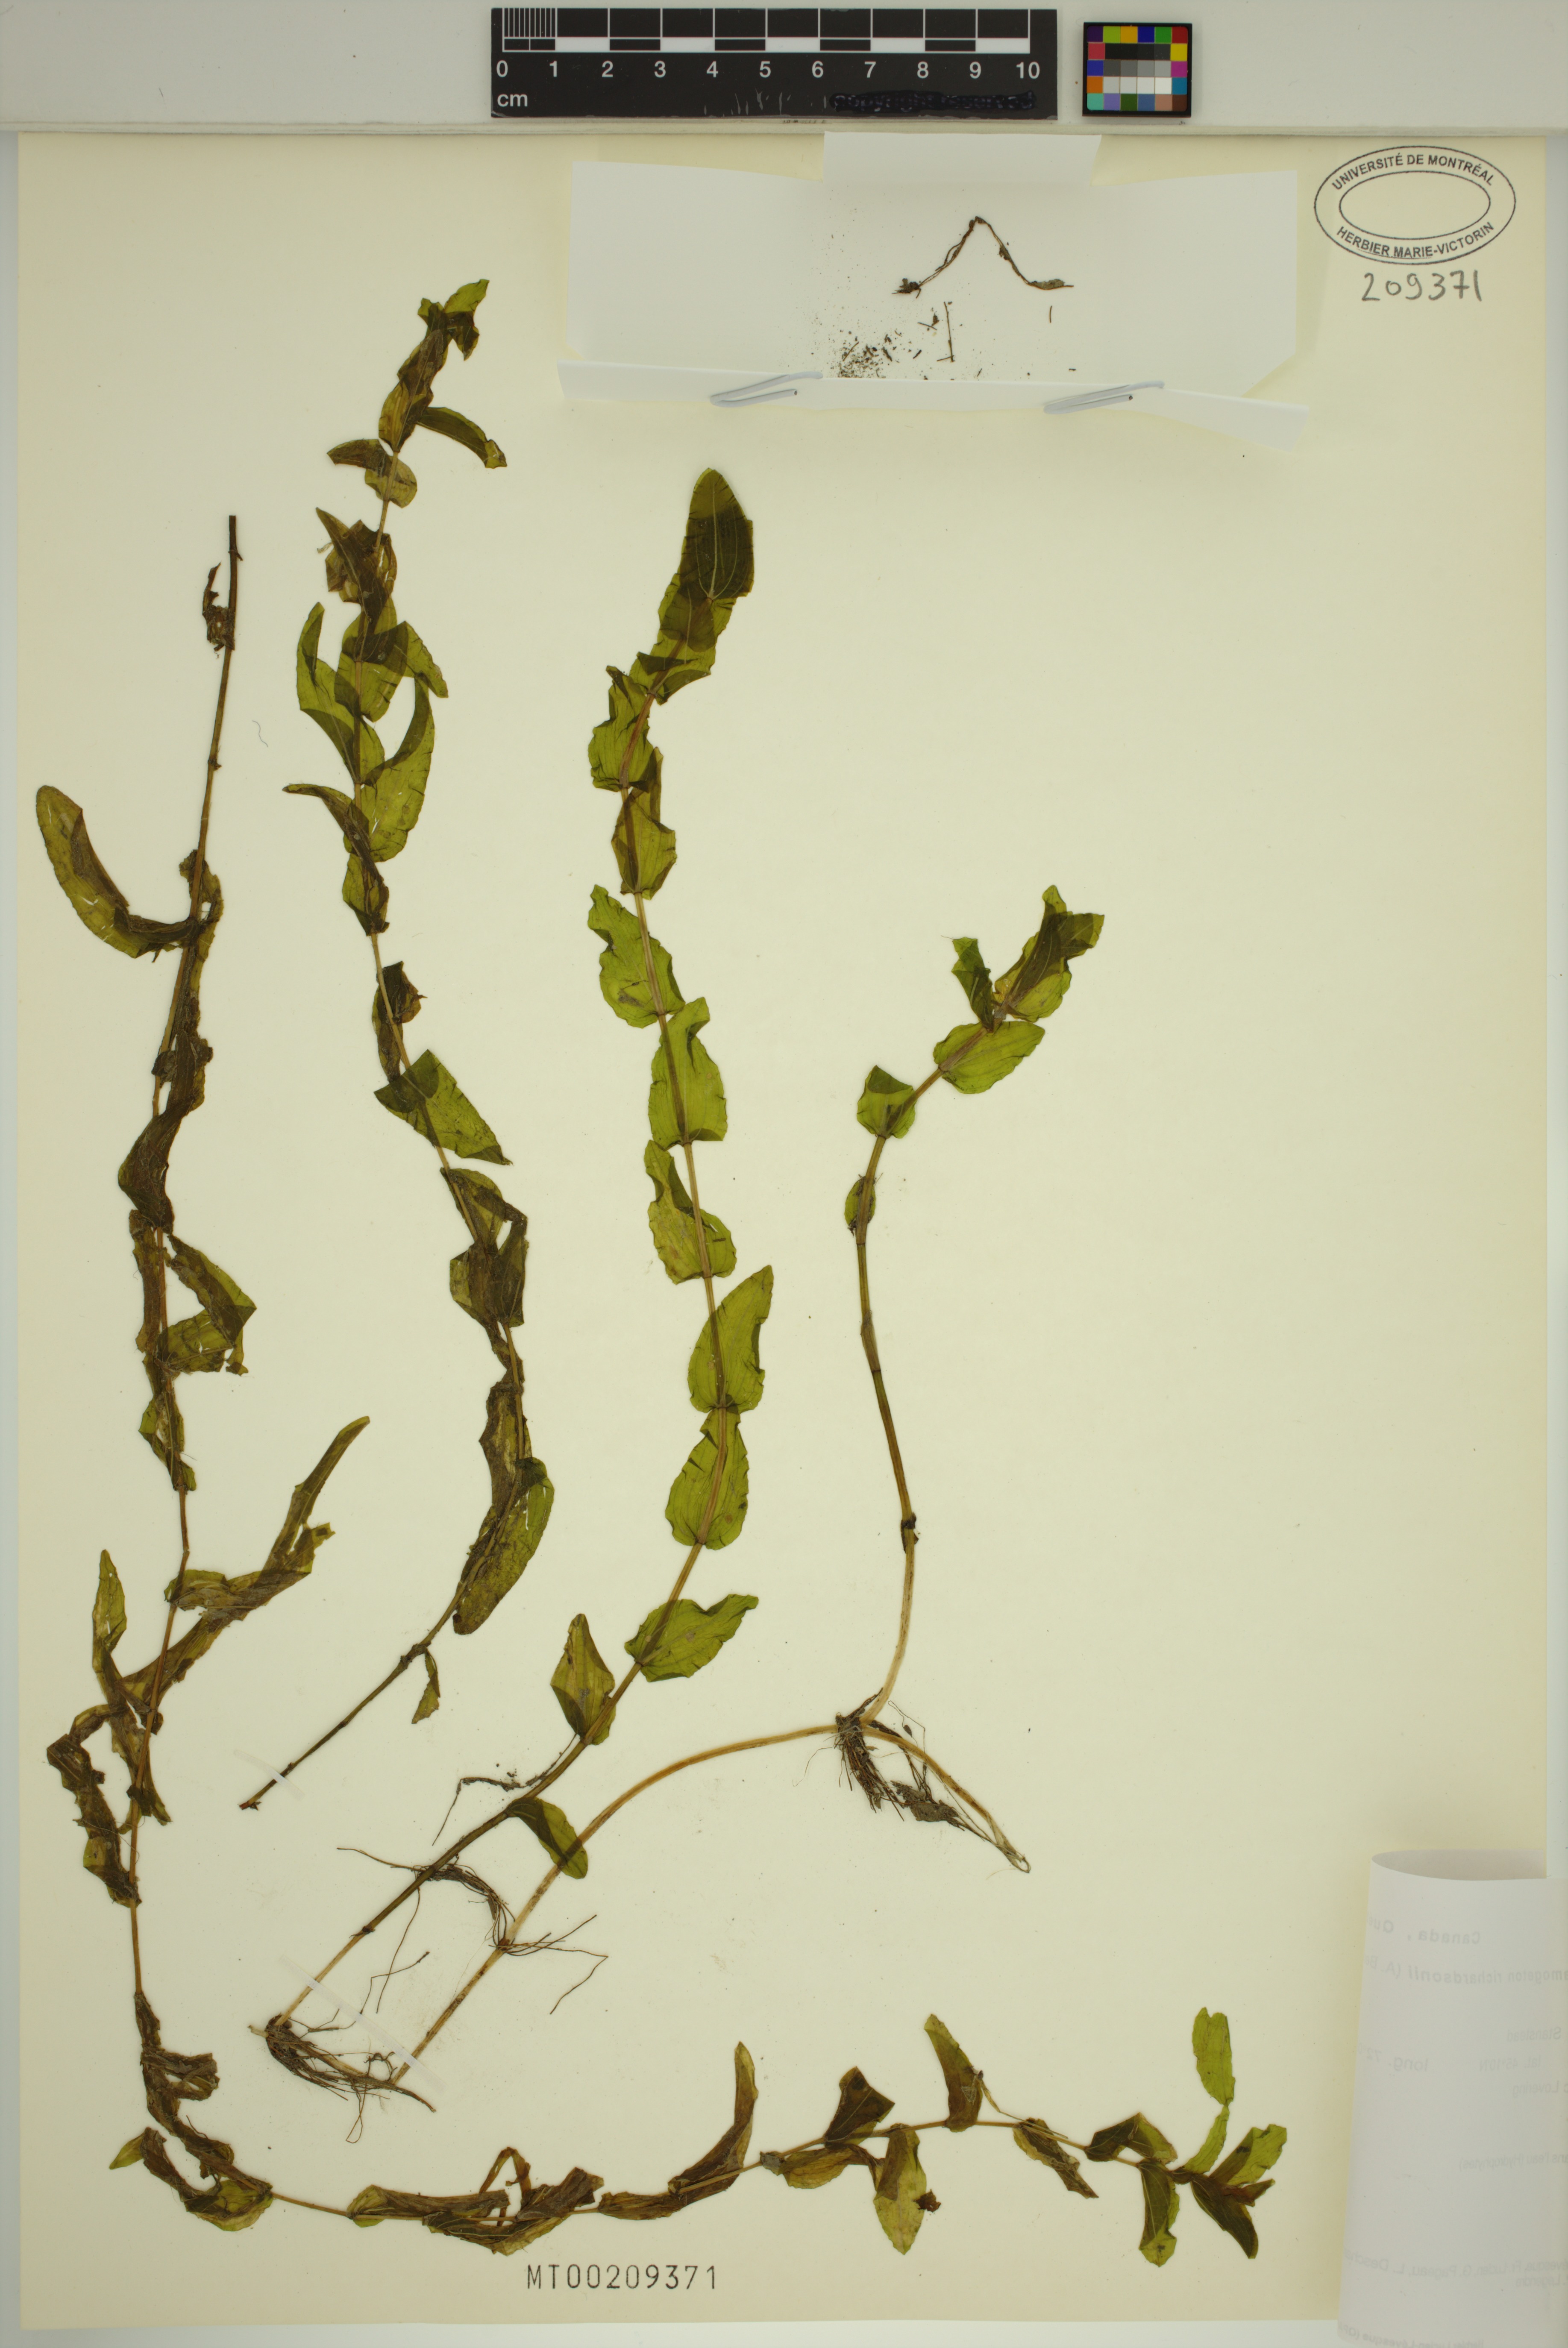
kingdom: Plantae
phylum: Tracheophyta
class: Liliopsida
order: Alismatales
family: Potamogetonaceae
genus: Potamogeton
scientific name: Potamogeton richardsonii
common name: Richardson's pondweed
